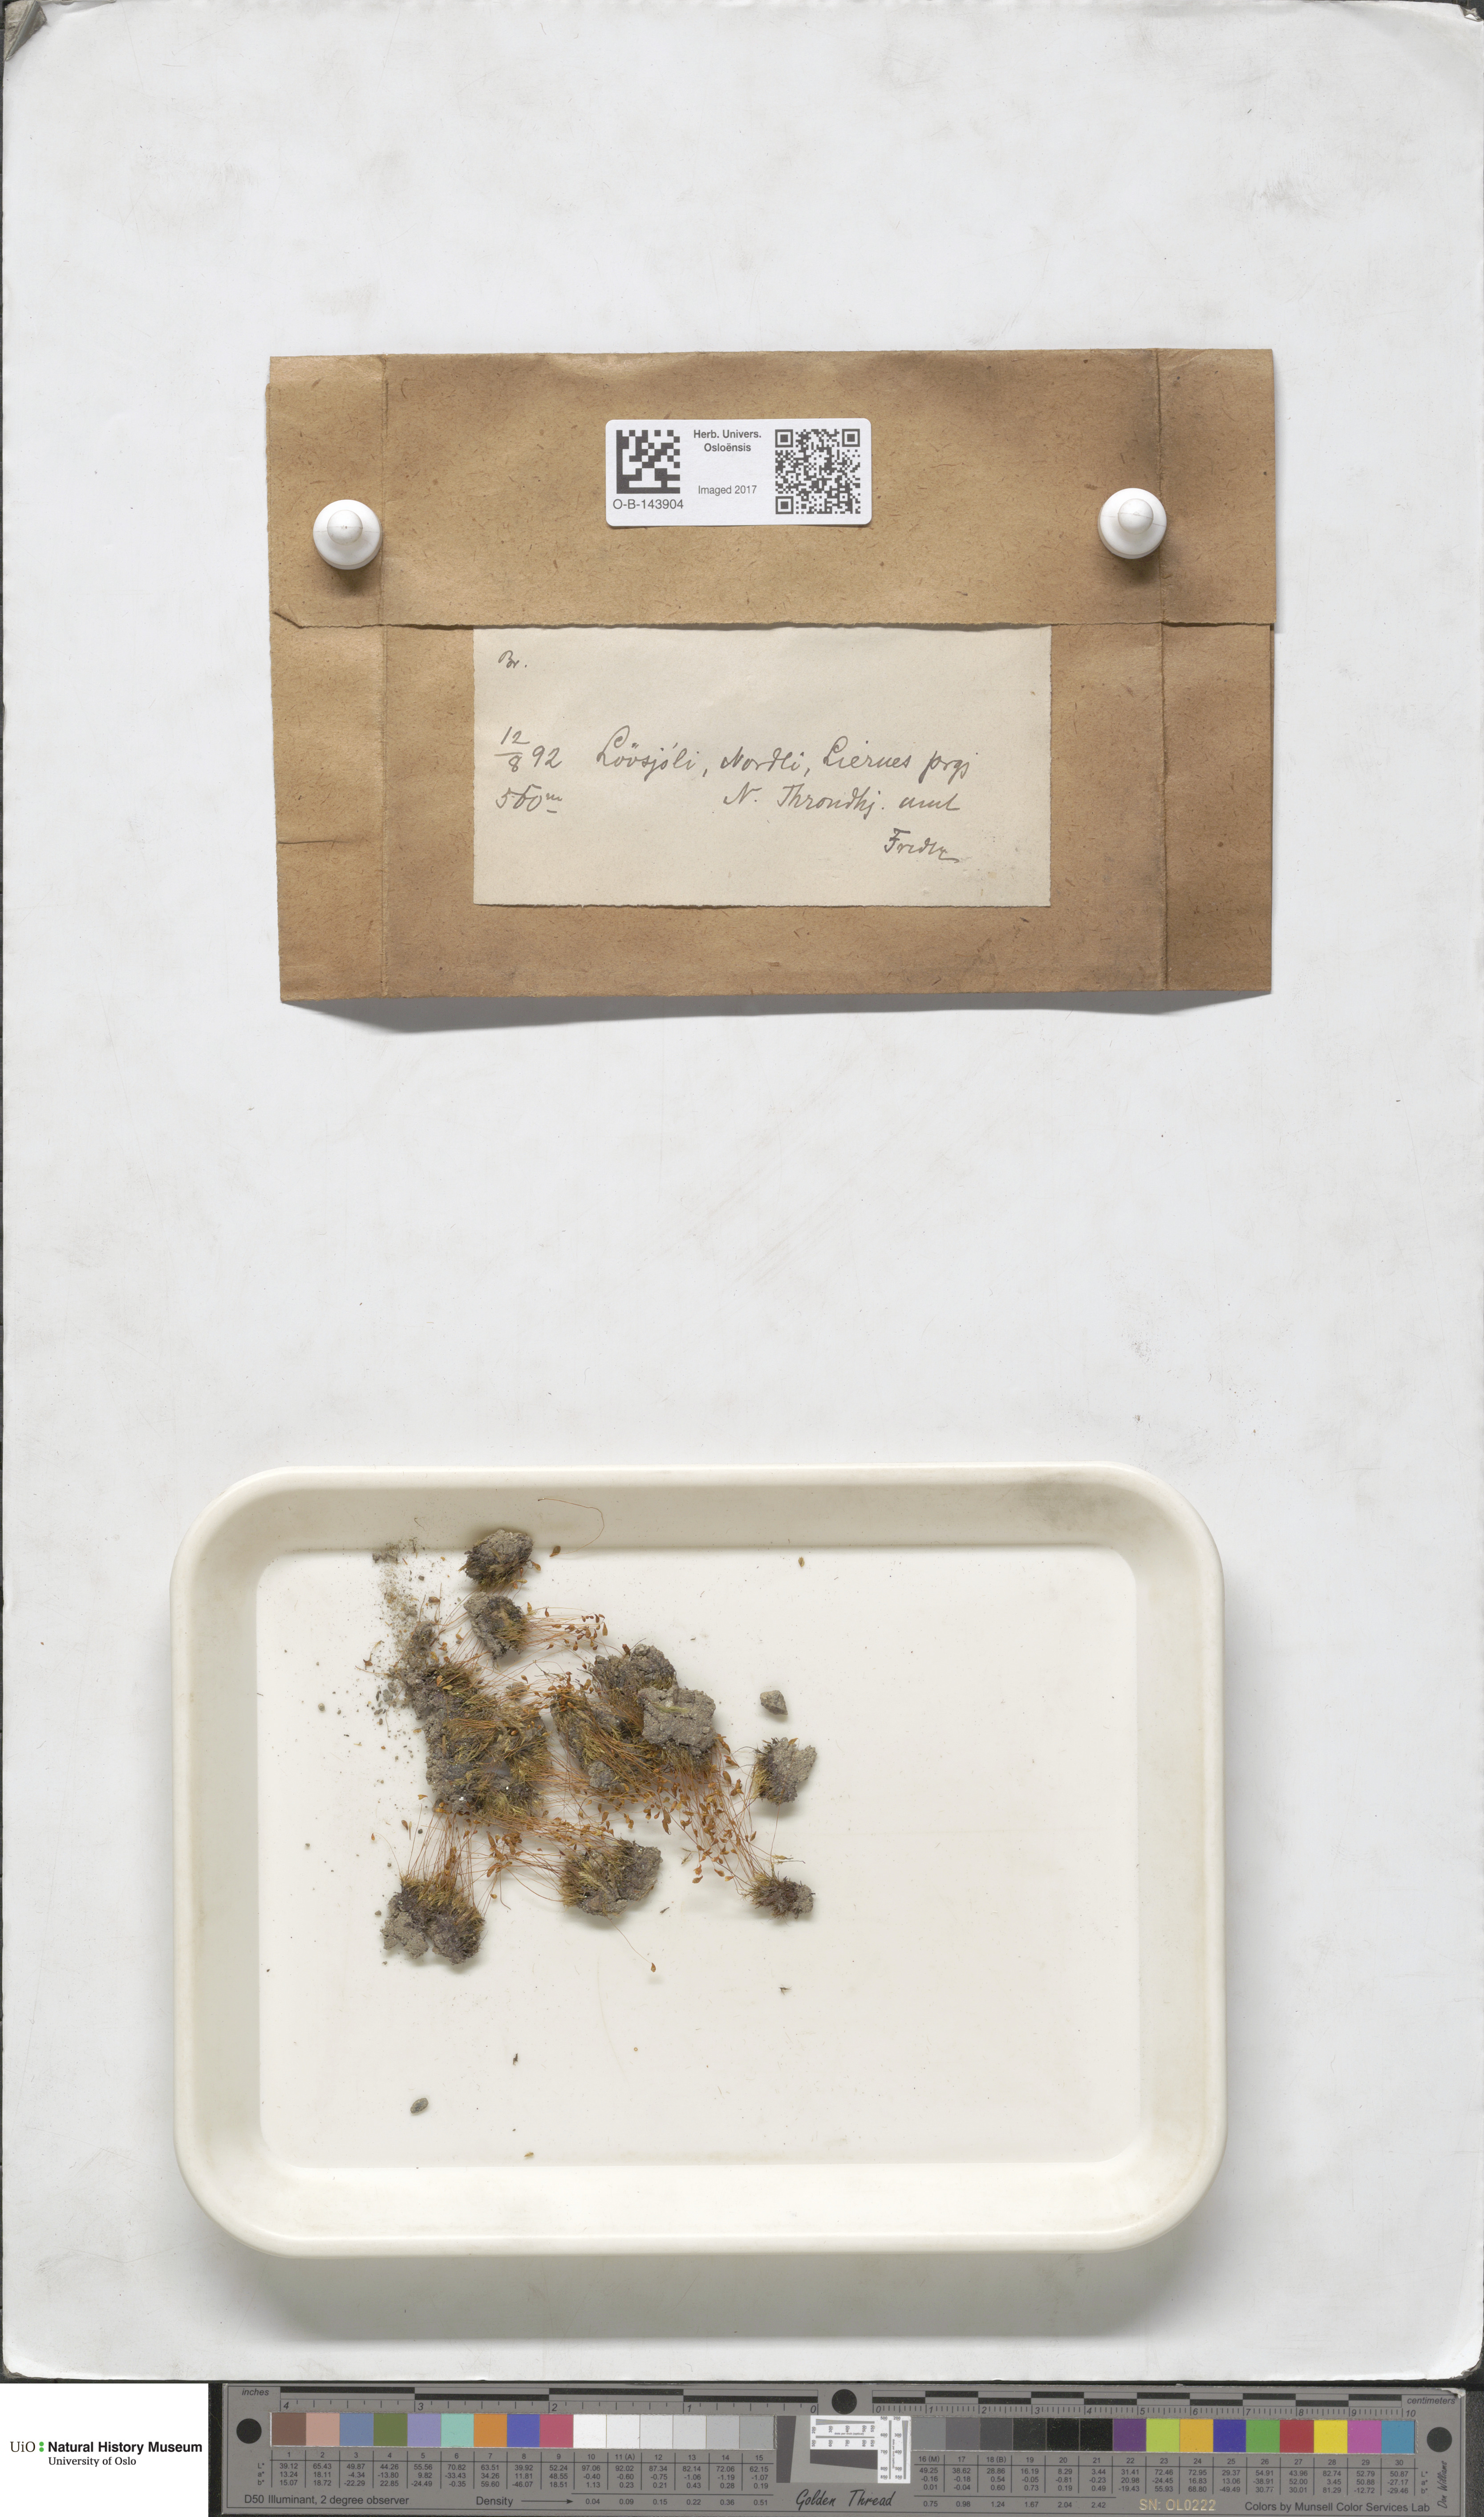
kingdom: Plantae
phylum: Bryophyta
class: Bryopsida
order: Bryales
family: Bryaceae
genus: Bryum
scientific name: Bryum
